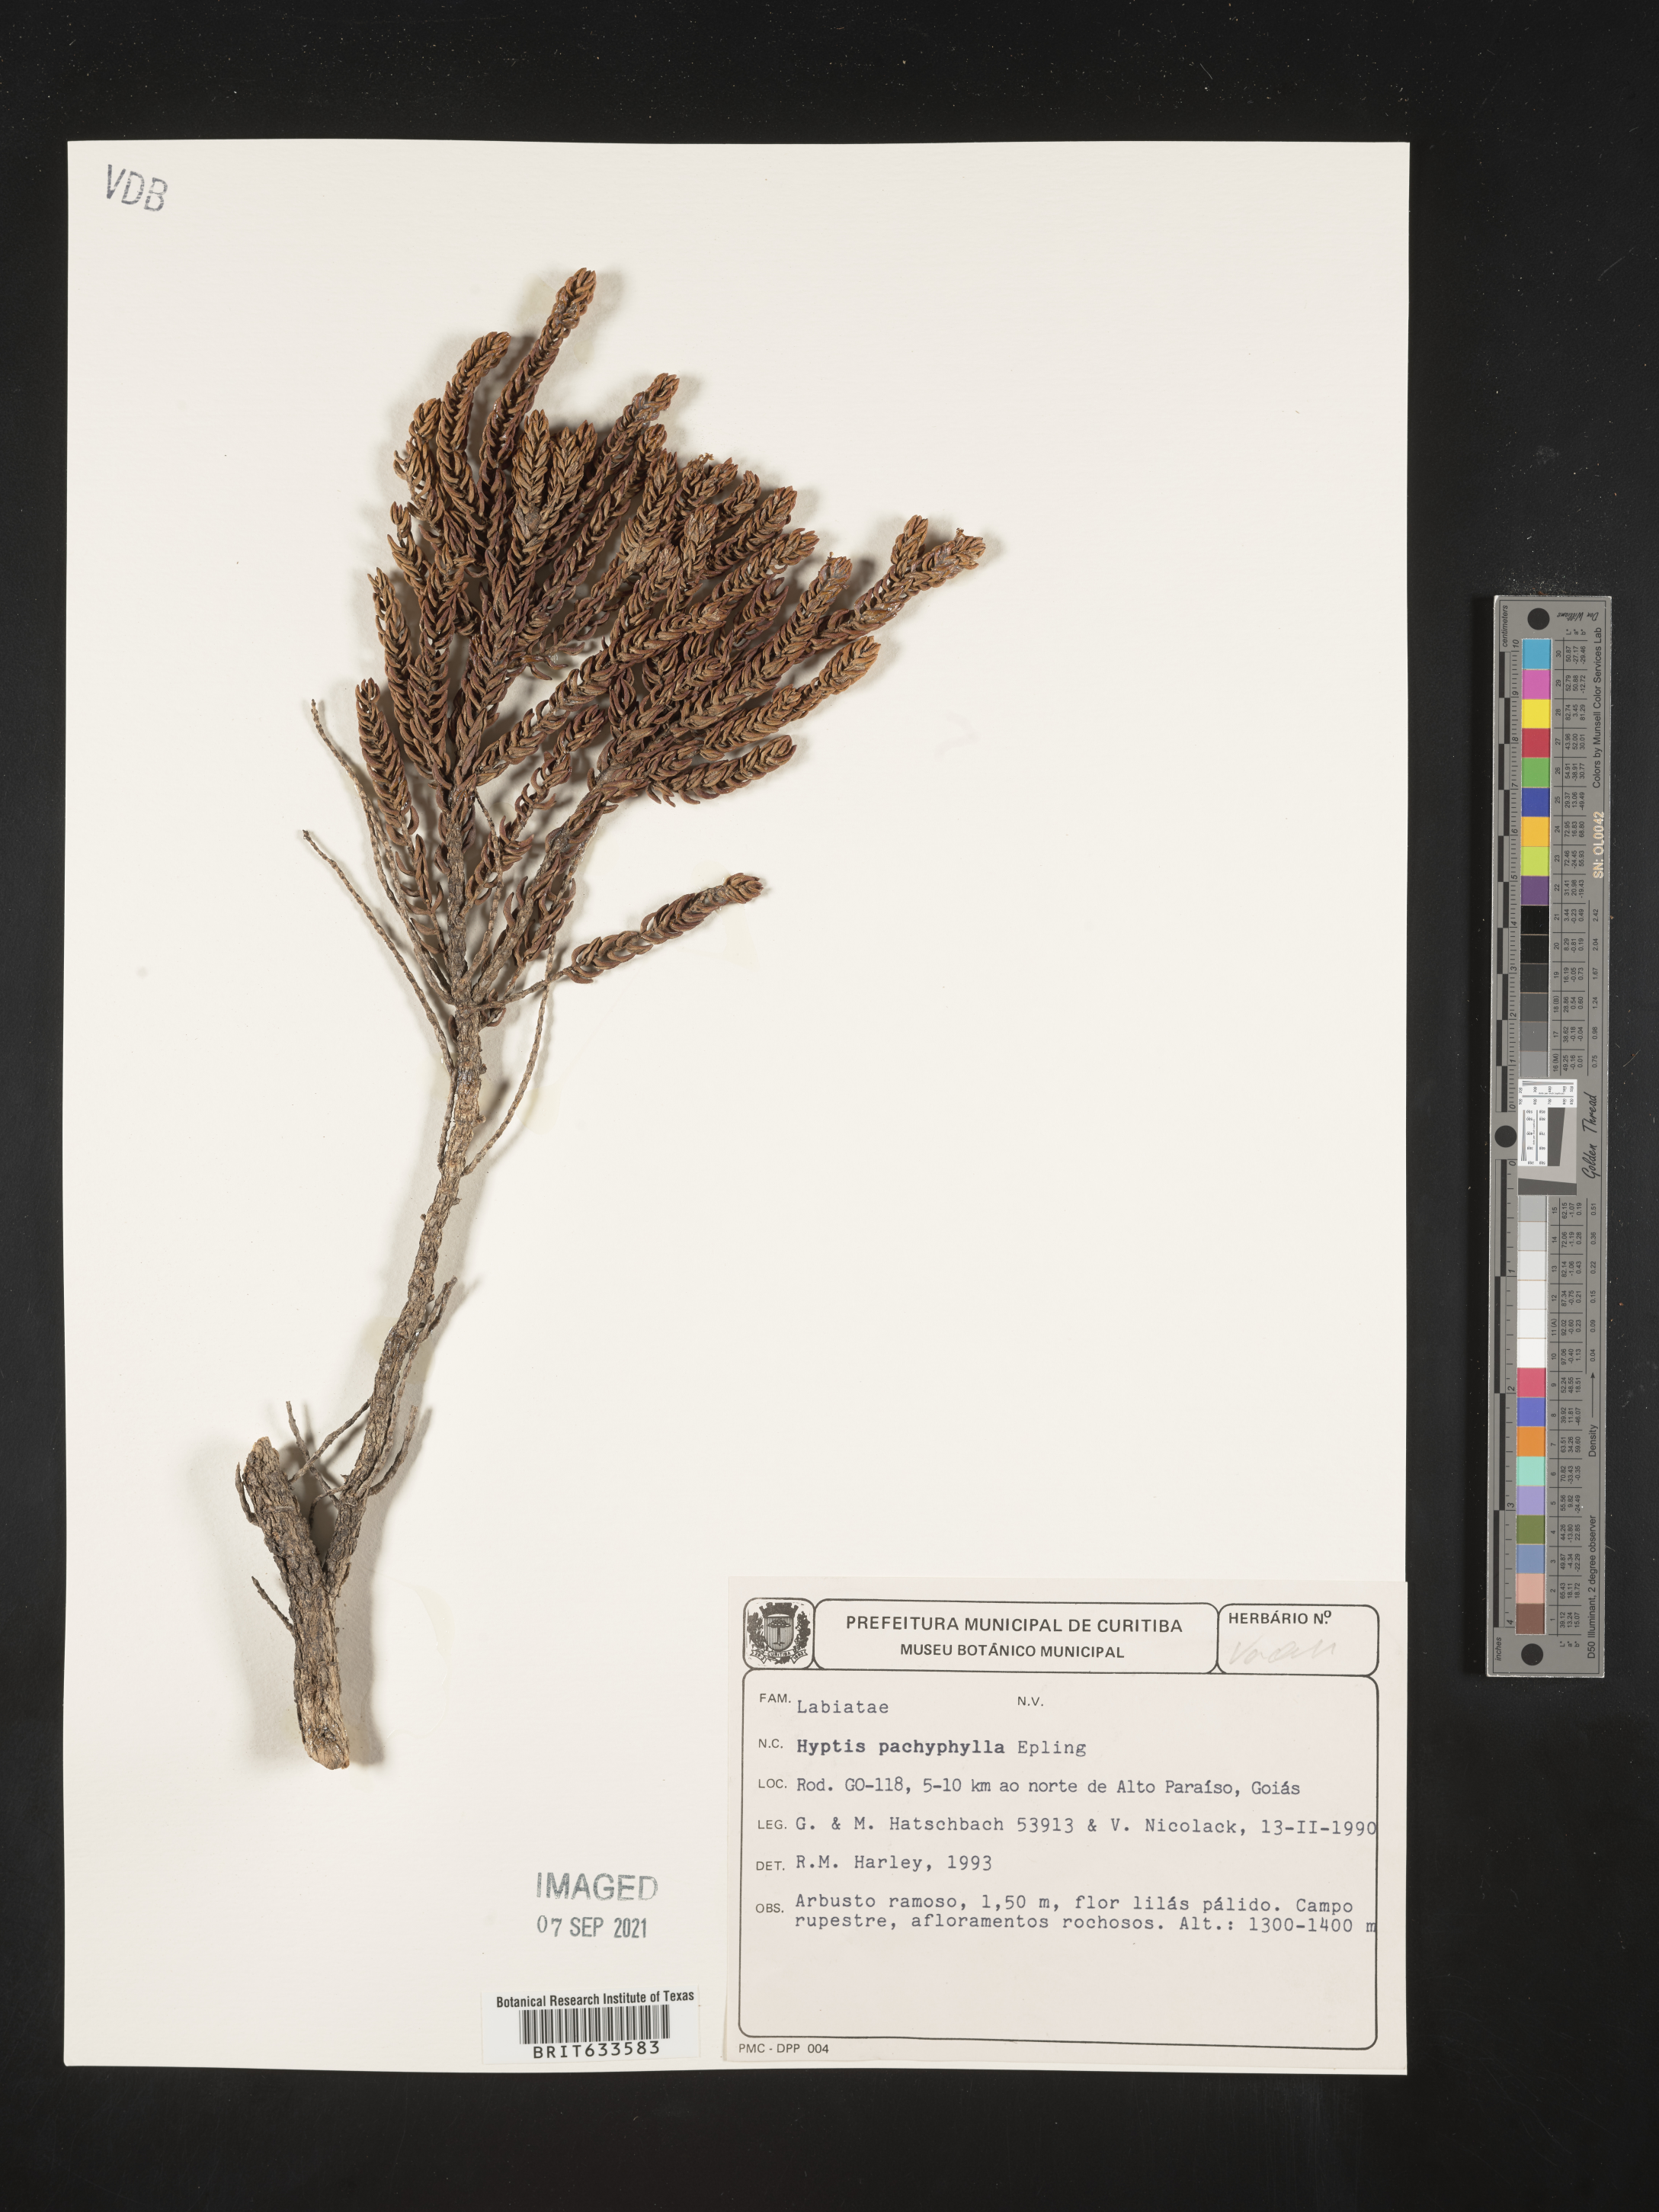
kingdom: Plantae
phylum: Tracheophyta
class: Magnoliopsida
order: Lamiales
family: Lamiaceae
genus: Hyptis
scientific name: Hyptis
